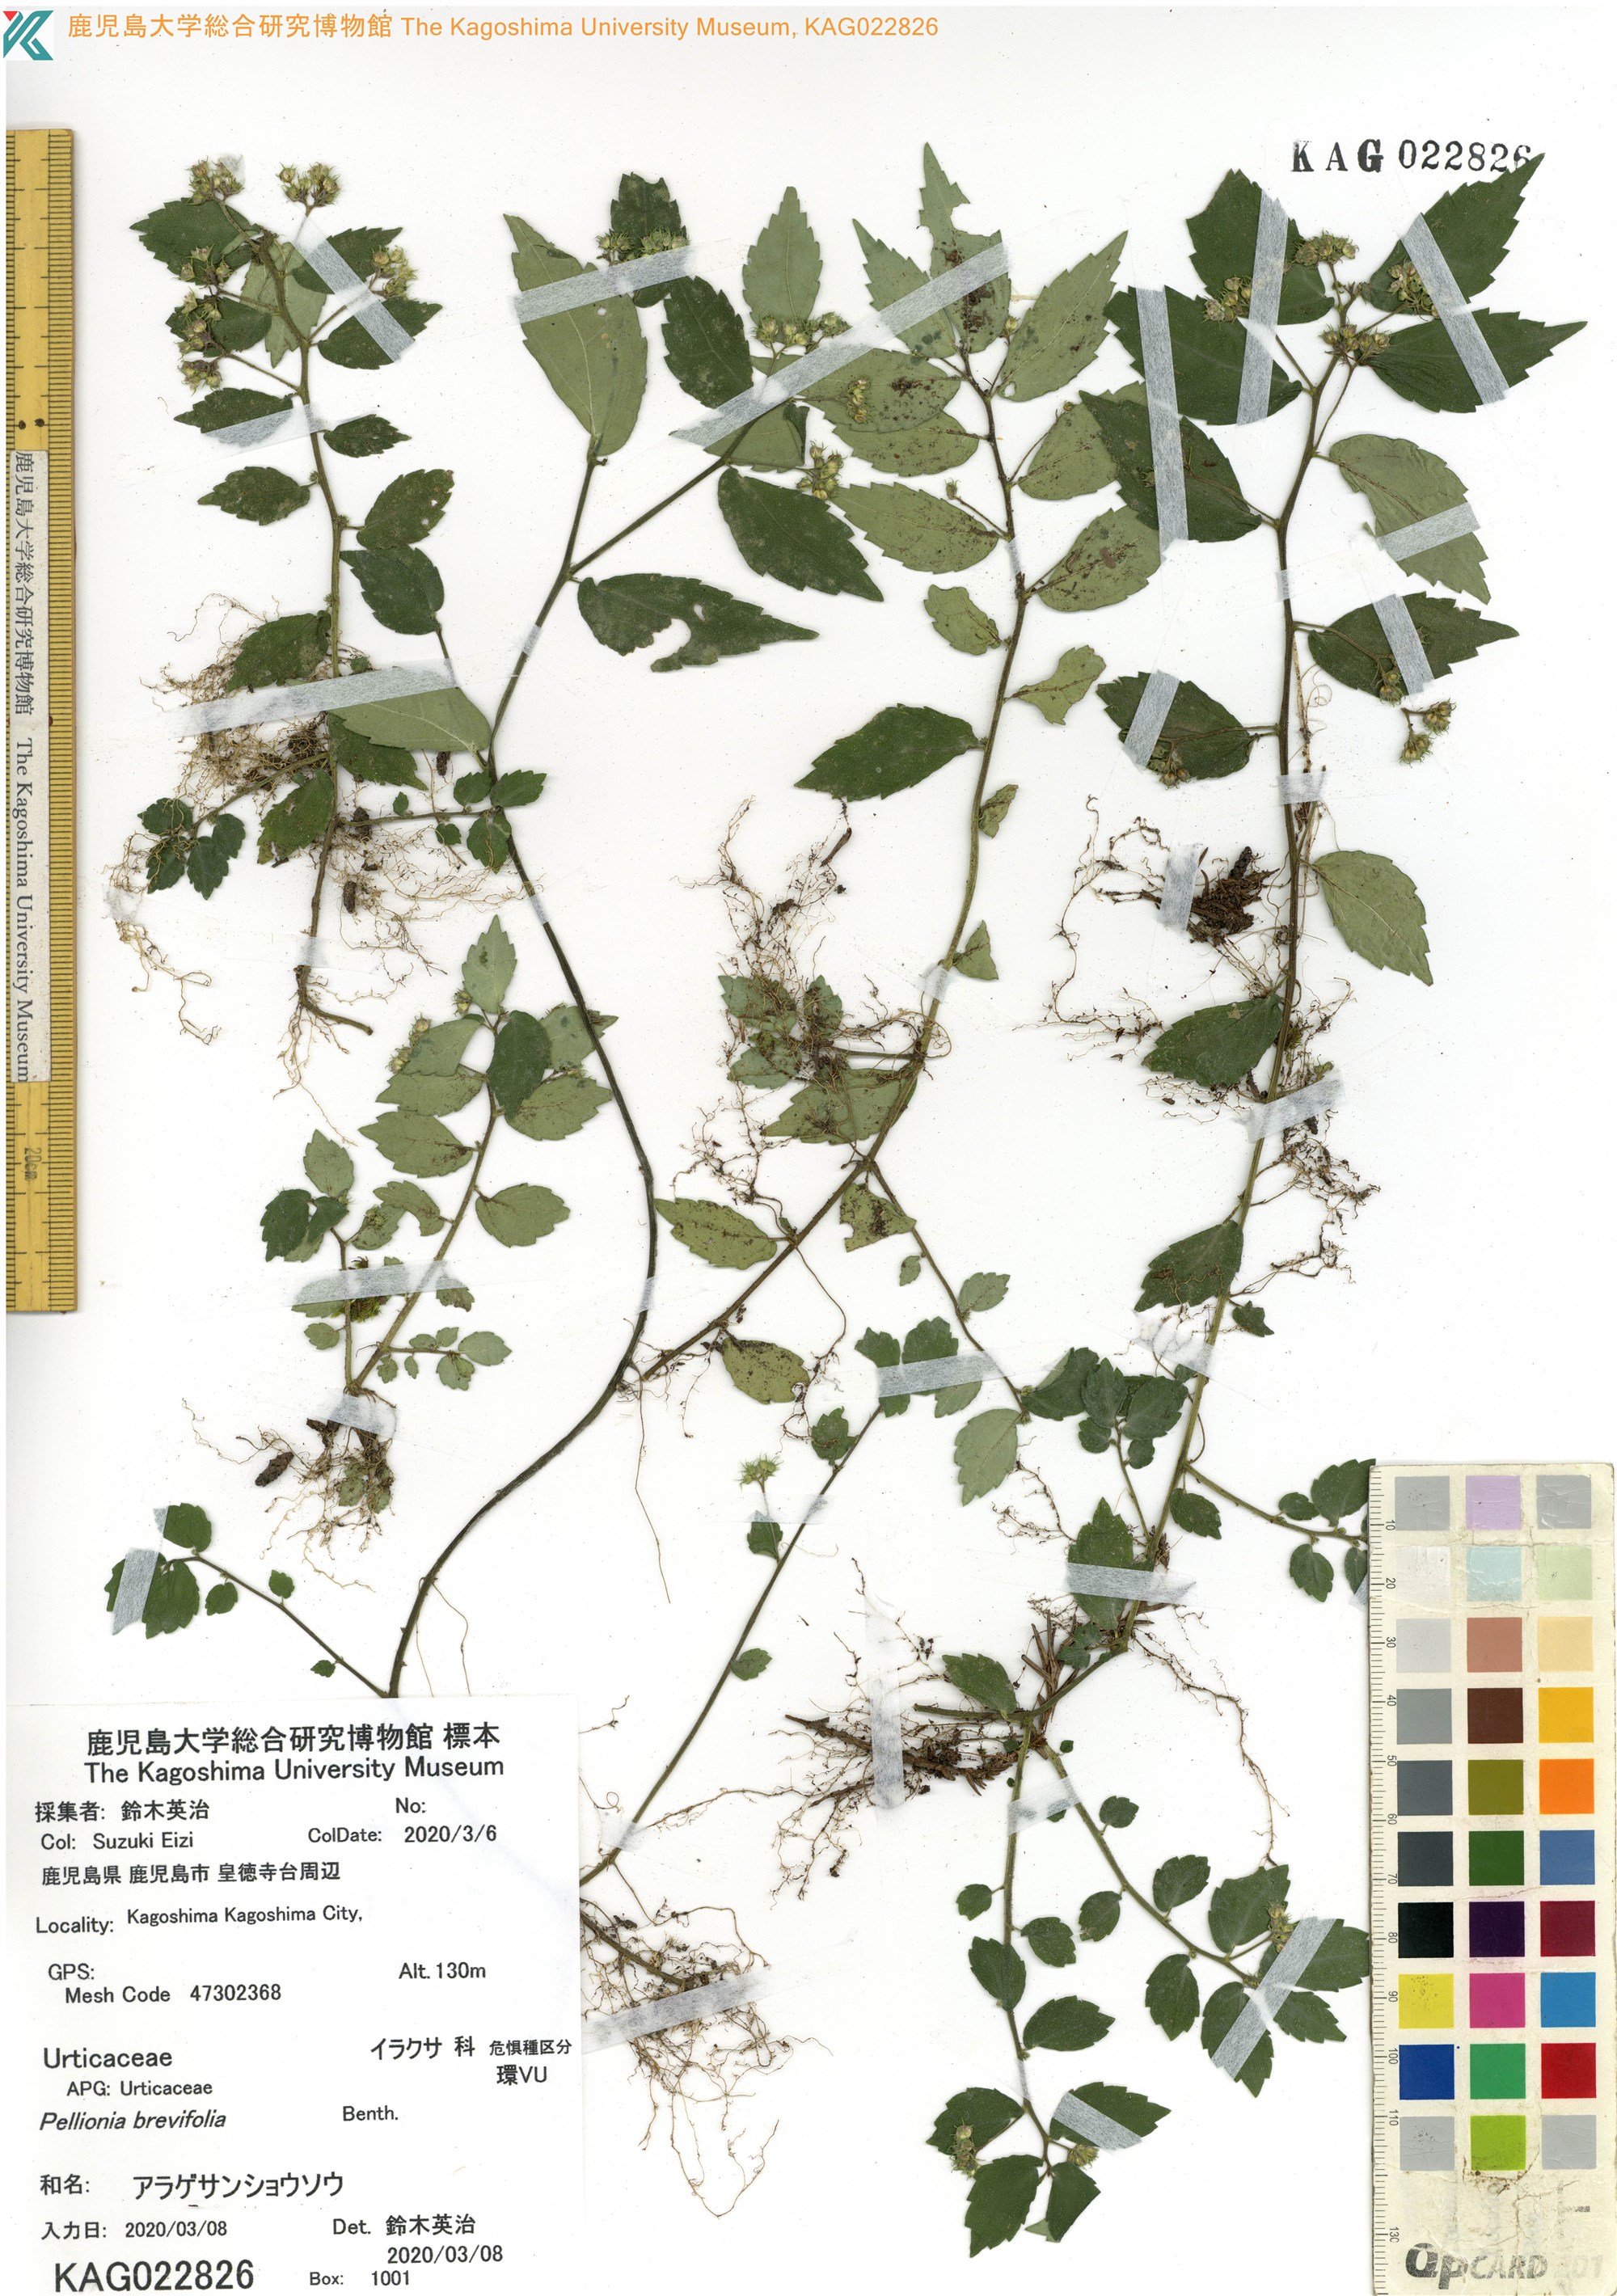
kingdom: Plantae
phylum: Tracheophyta
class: Magnoliopsida
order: Rosales
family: Urticaceae
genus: Elatostema
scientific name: Elatostema radicans
